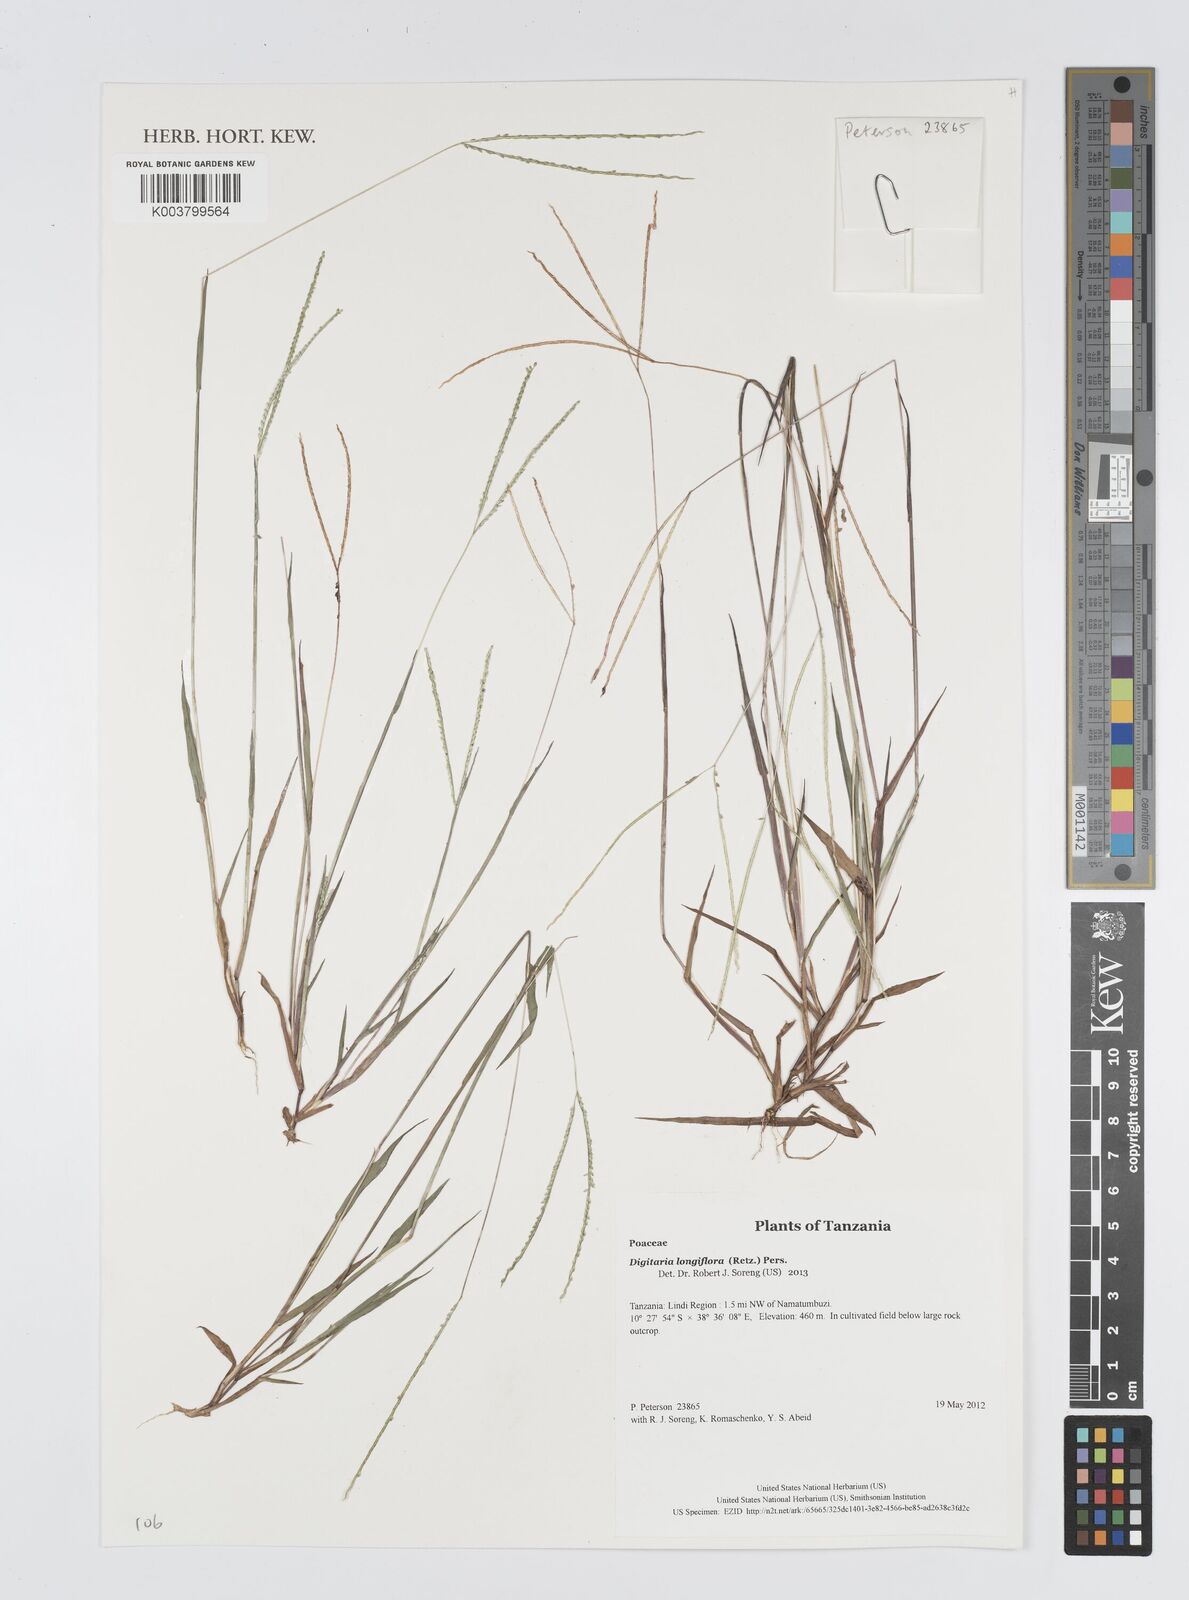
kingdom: Plantae
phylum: Tracheophyta
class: Liliopsida
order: Poales
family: Poaceae
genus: Digitaria
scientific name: Digitaria longiflora
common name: Wire crabgrass
